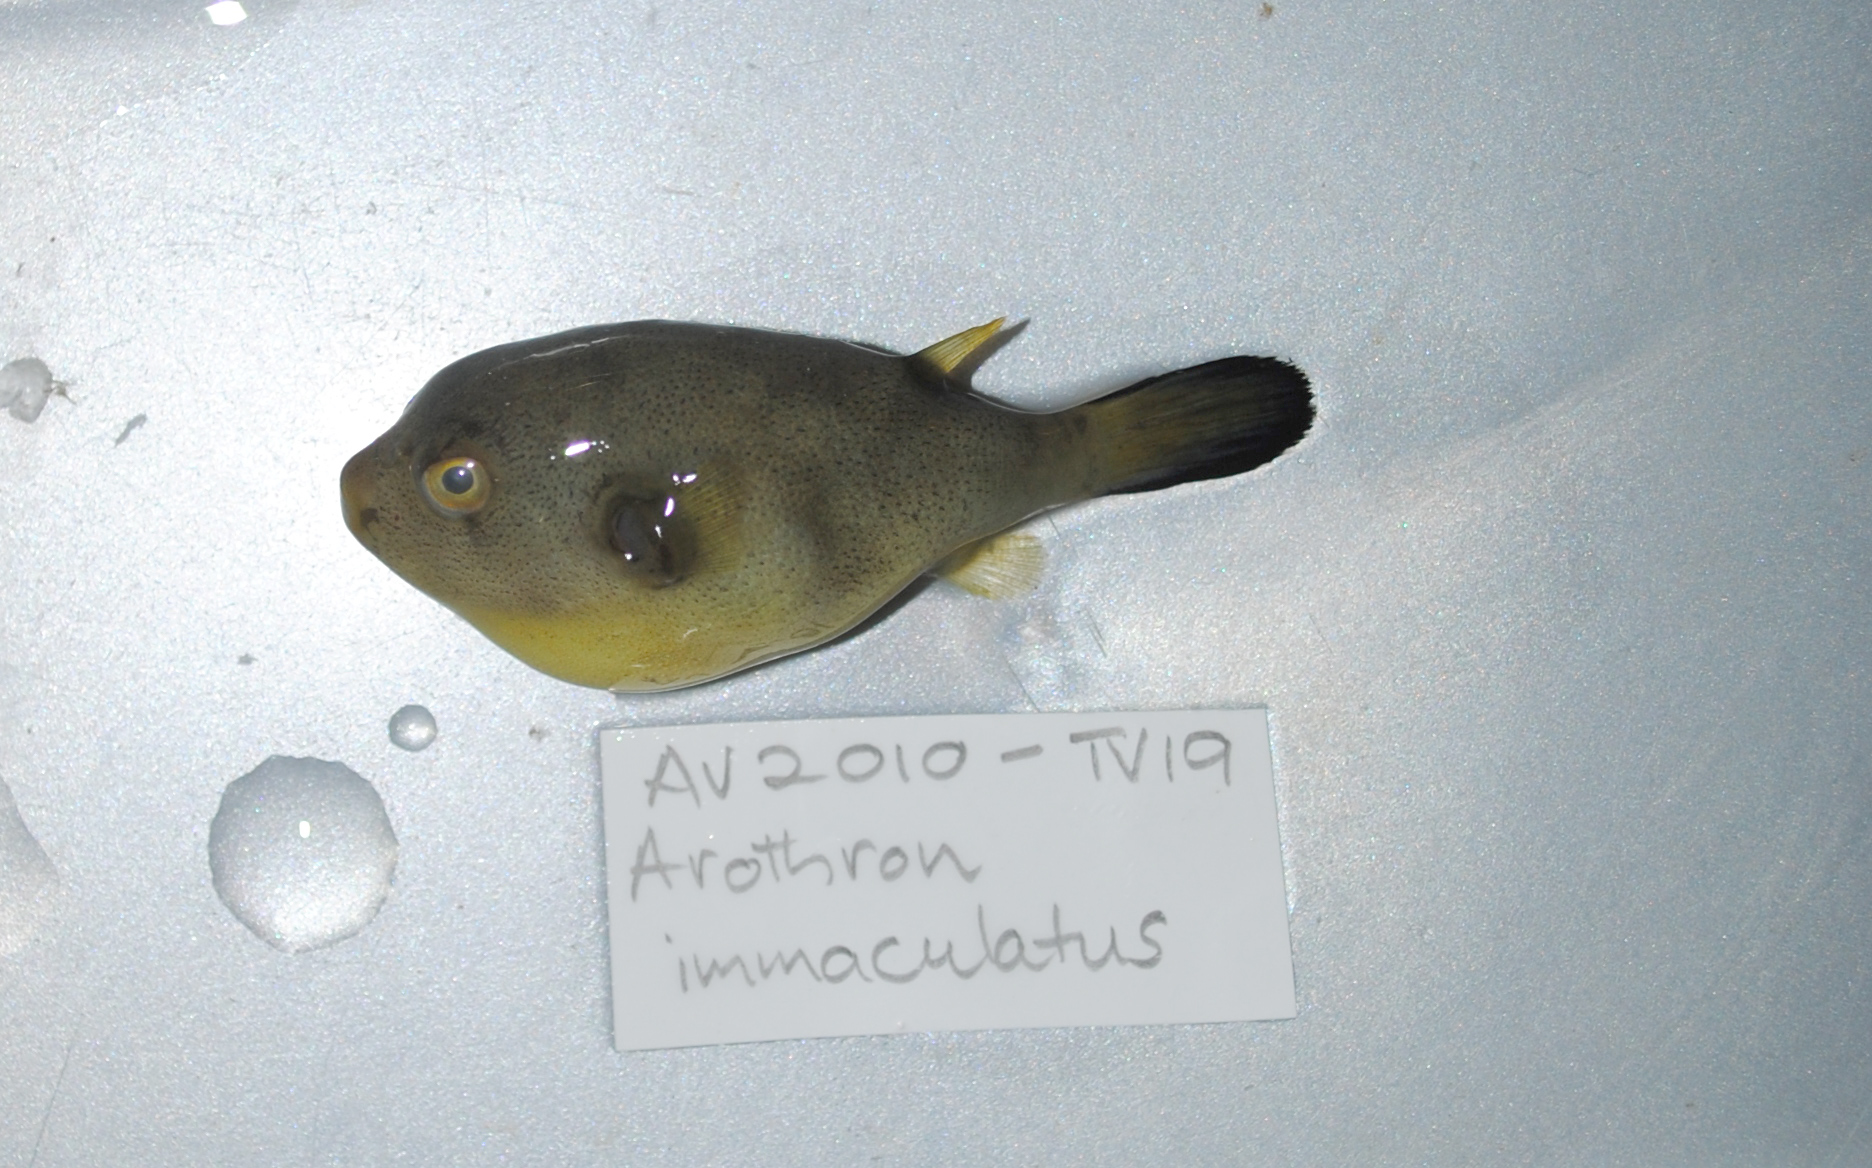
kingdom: Animalia
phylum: Chordata
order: Tetraodontiformes
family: Tetraodontidae
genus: Arothron
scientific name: Arothron immaculatus
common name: Blackedged blaasop
